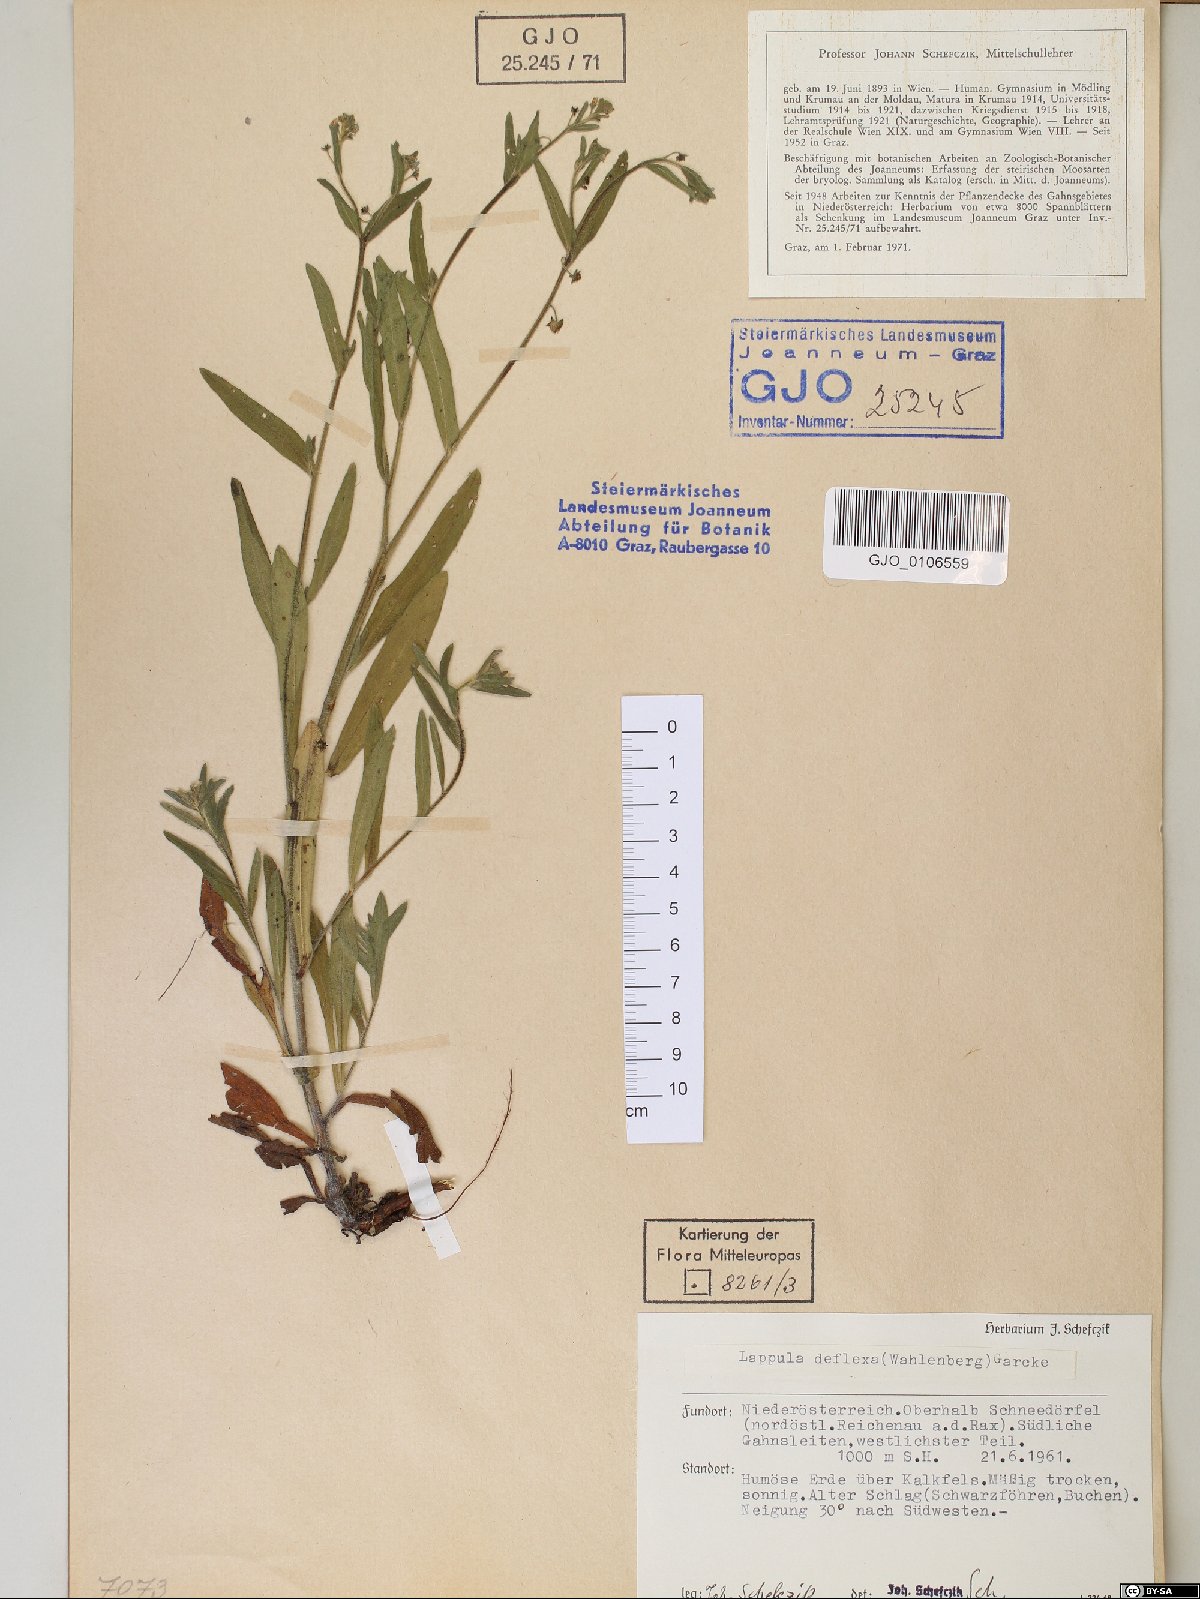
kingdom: Plantae
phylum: Tracheophyta
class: Magnoliopsida
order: Boraginales
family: Boraginaceae
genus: Hackelia
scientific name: Hackelia deflexa
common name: Nodding stickseed
